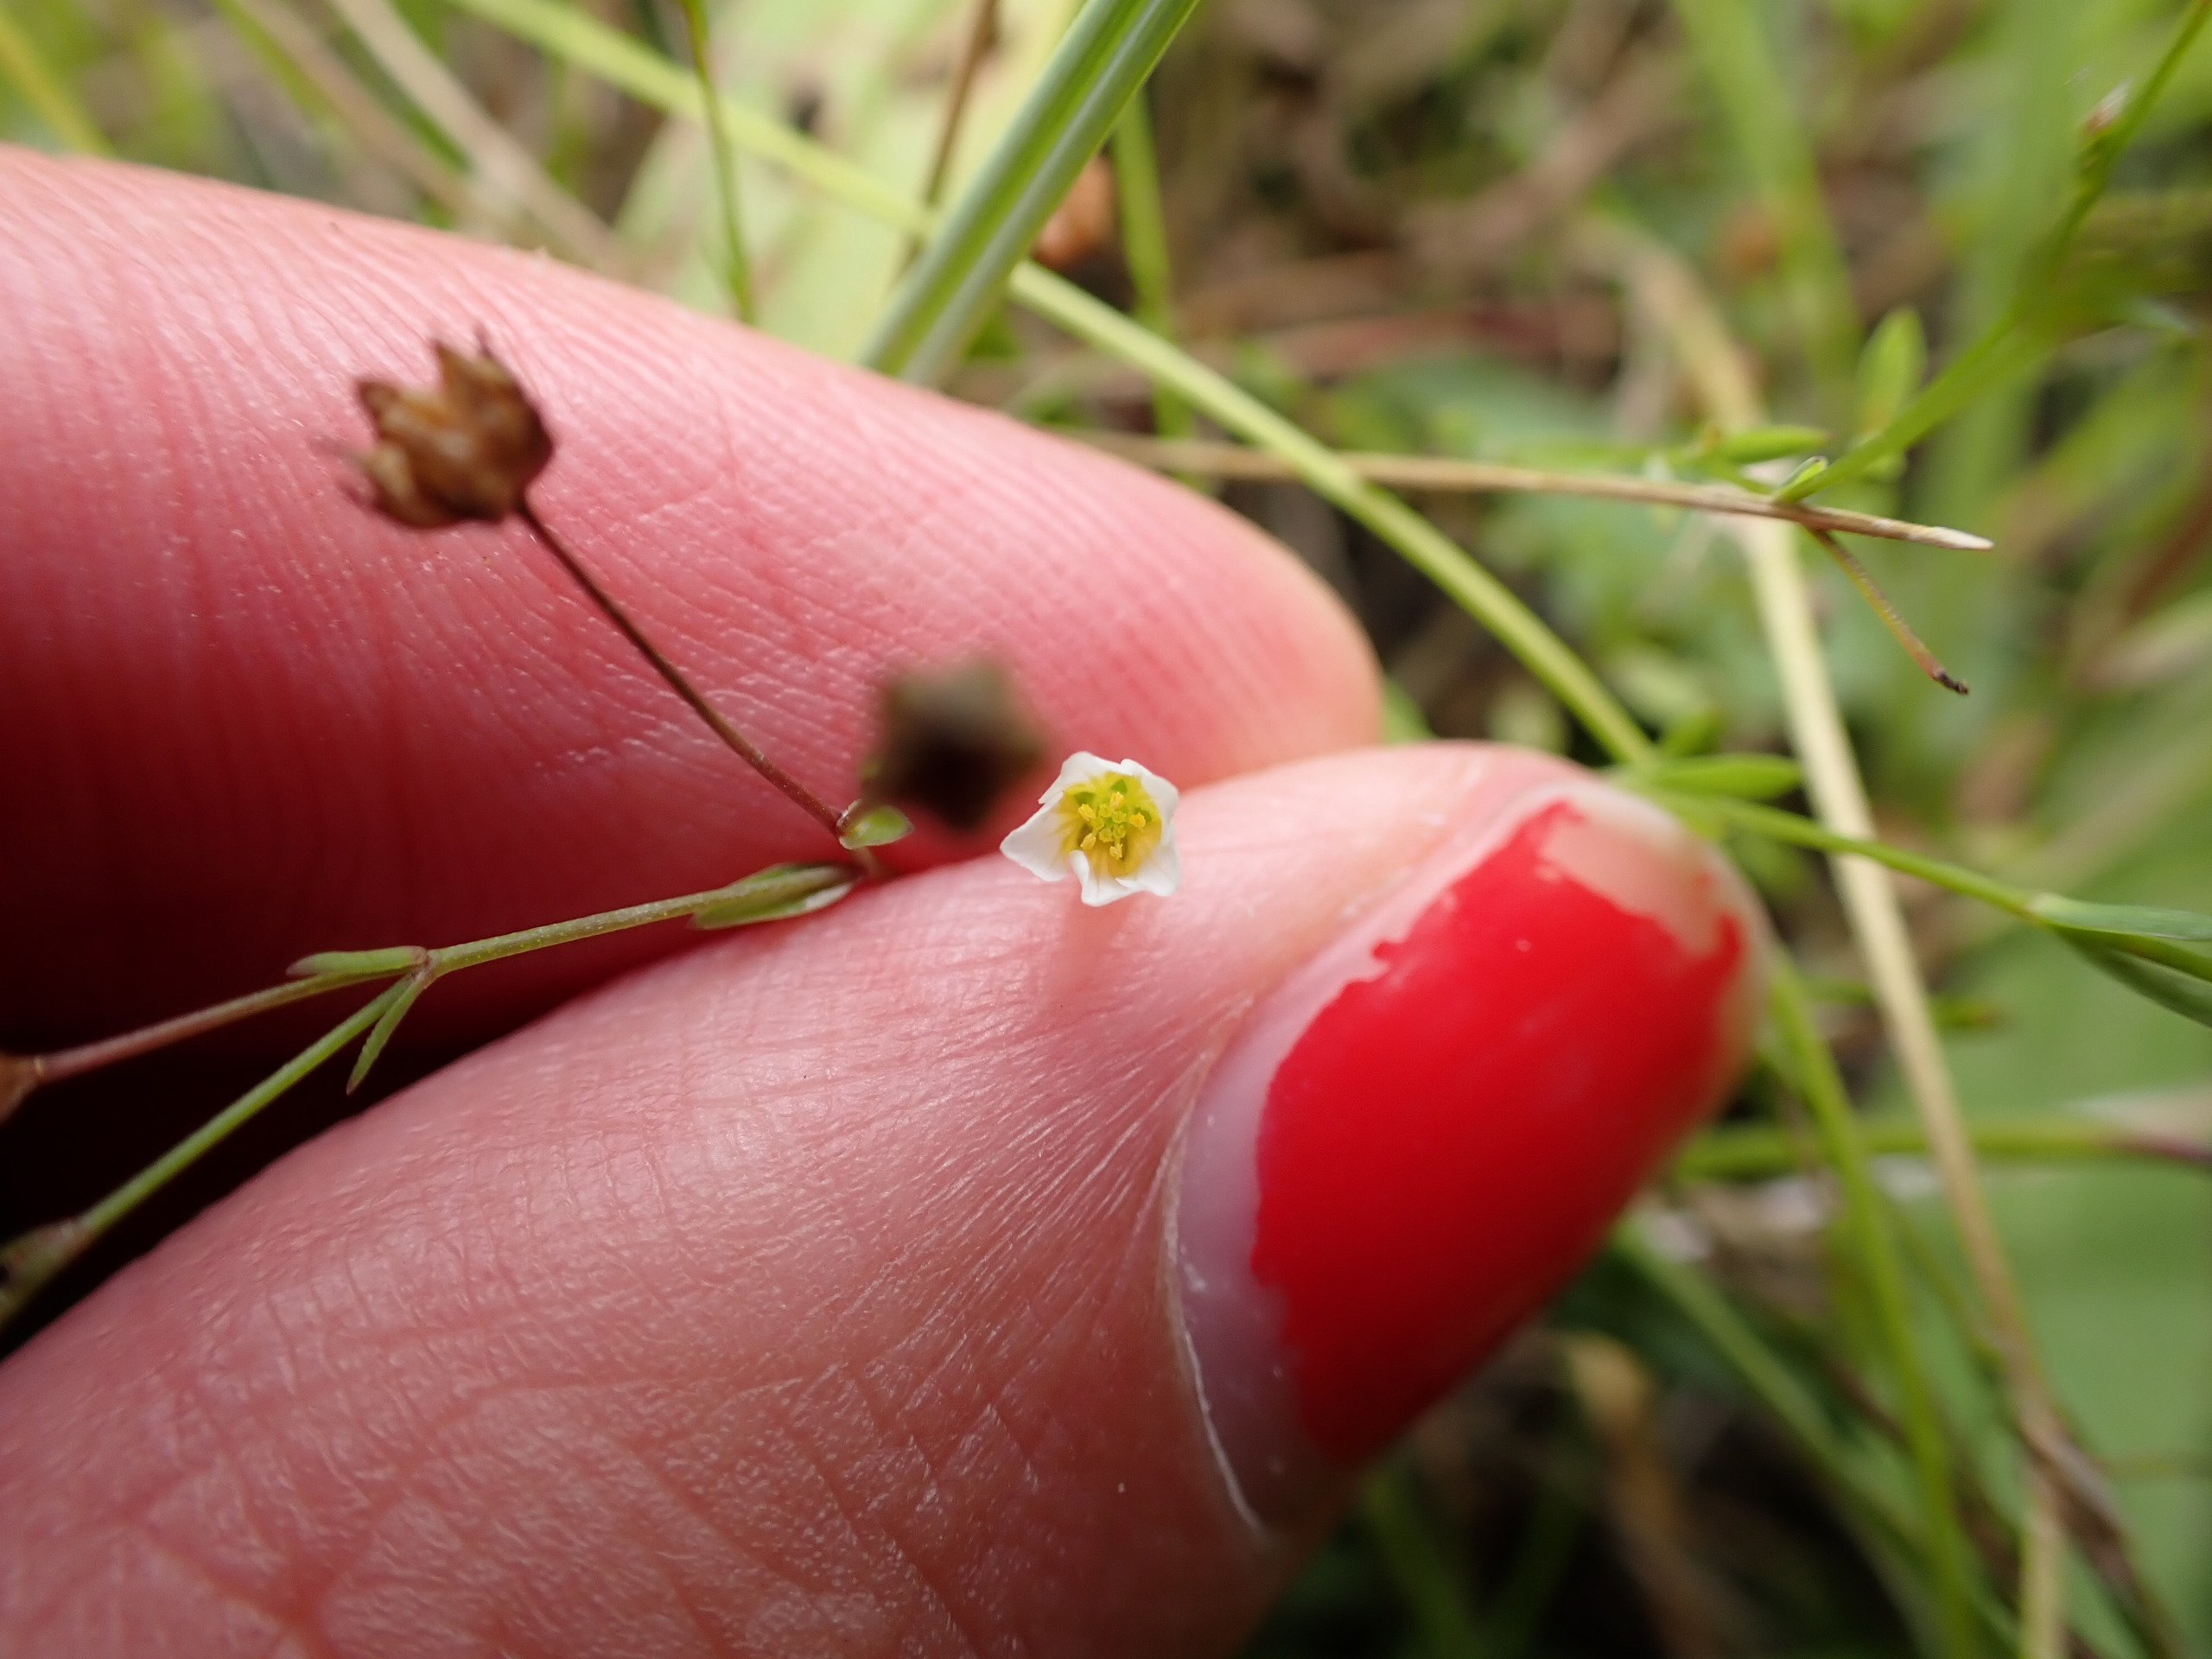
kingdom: Plantae
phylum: Tracheophyta
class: Magnoliopsida
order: Malpighiales
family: Linaceae
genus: Linum
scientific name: Linum catharticum
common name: Vild hør
